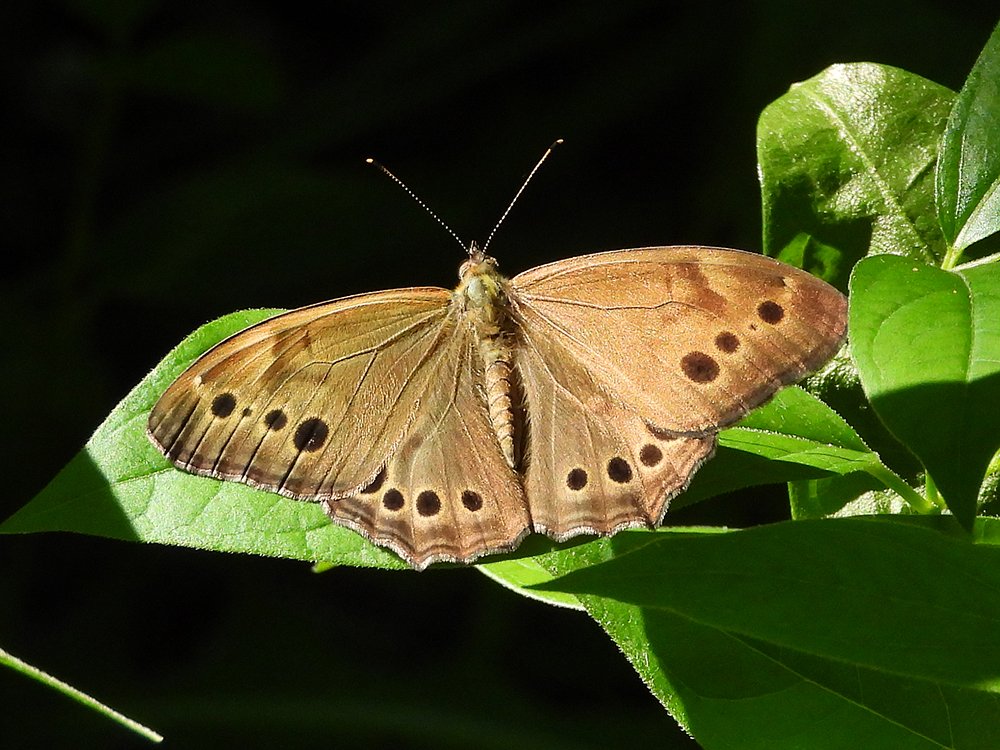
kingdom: Animalia
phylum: Arthropoda
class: Insecta
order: Lepidoptera
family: Nymphalidae
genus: Lethe
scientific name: Lethe anthedon
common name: Northern Pearly-Eye
